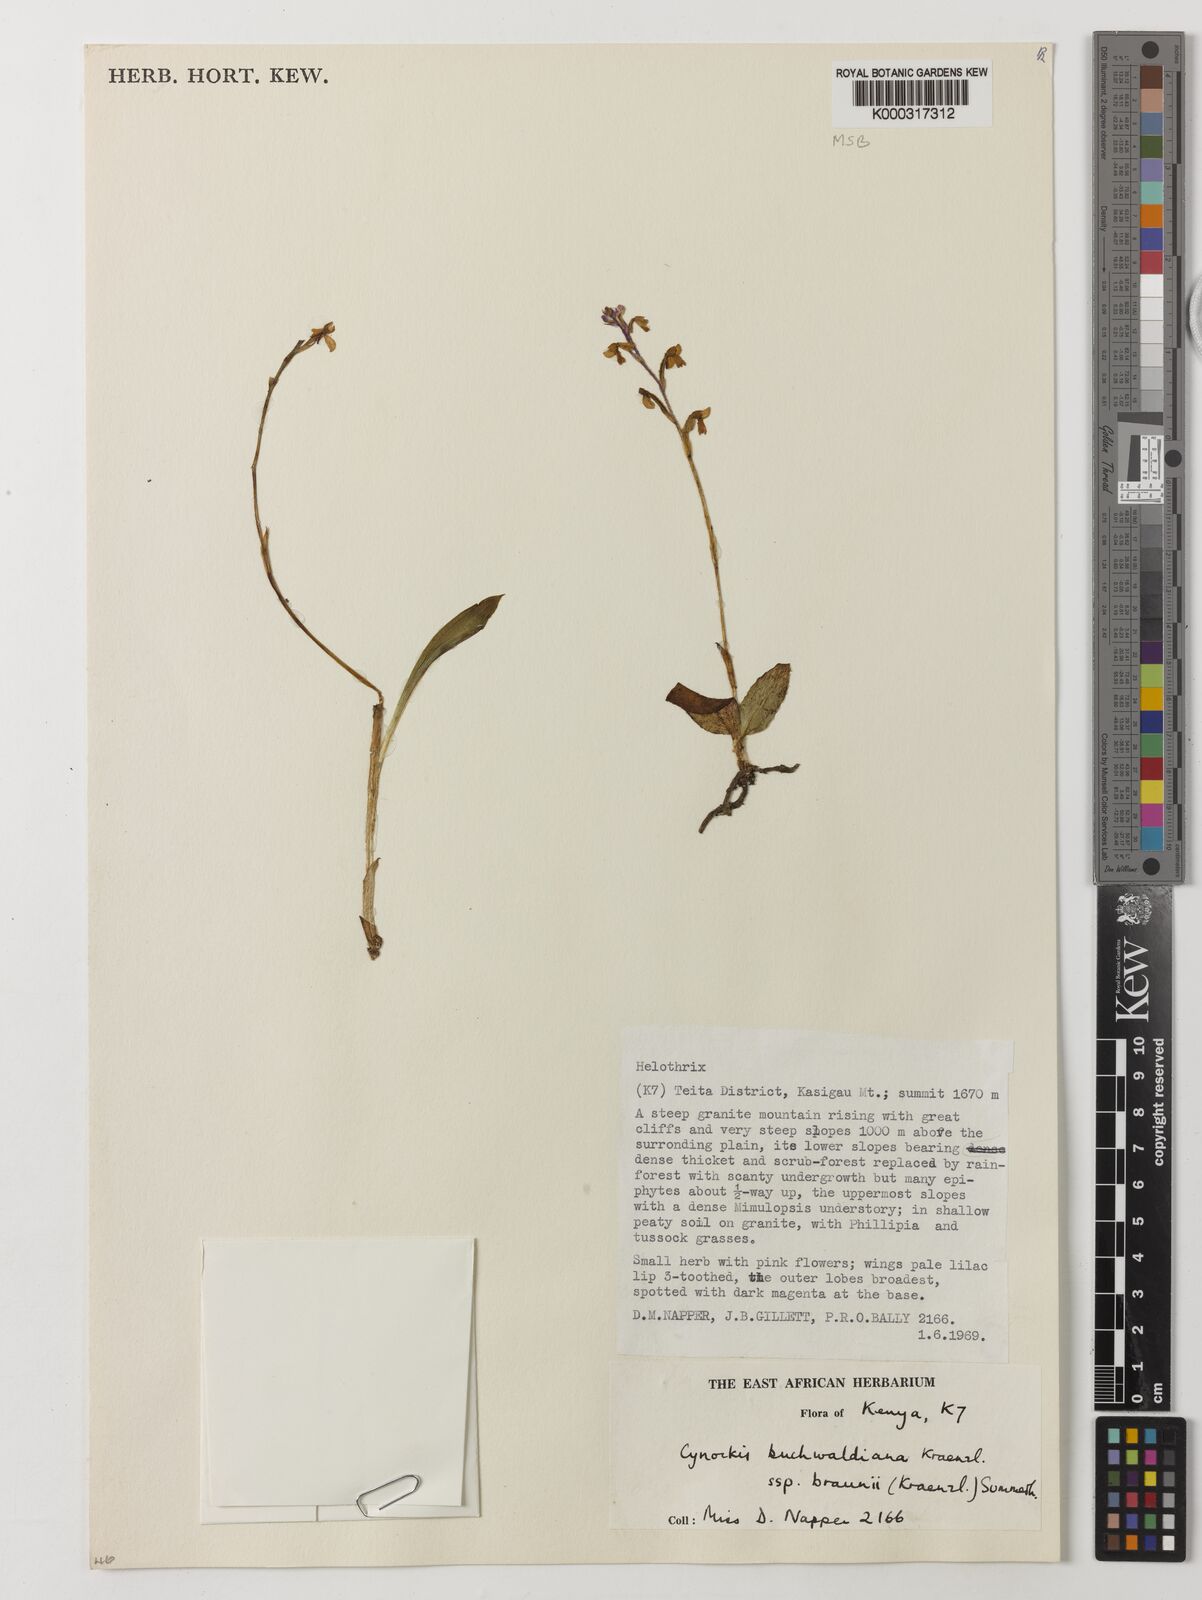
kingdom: Plantae
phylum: Tracheophyta
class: Liliopsida
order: Asparagales
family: Orchidaceae
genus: Cynorkis
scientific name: Cynorkis buchwaldiana
